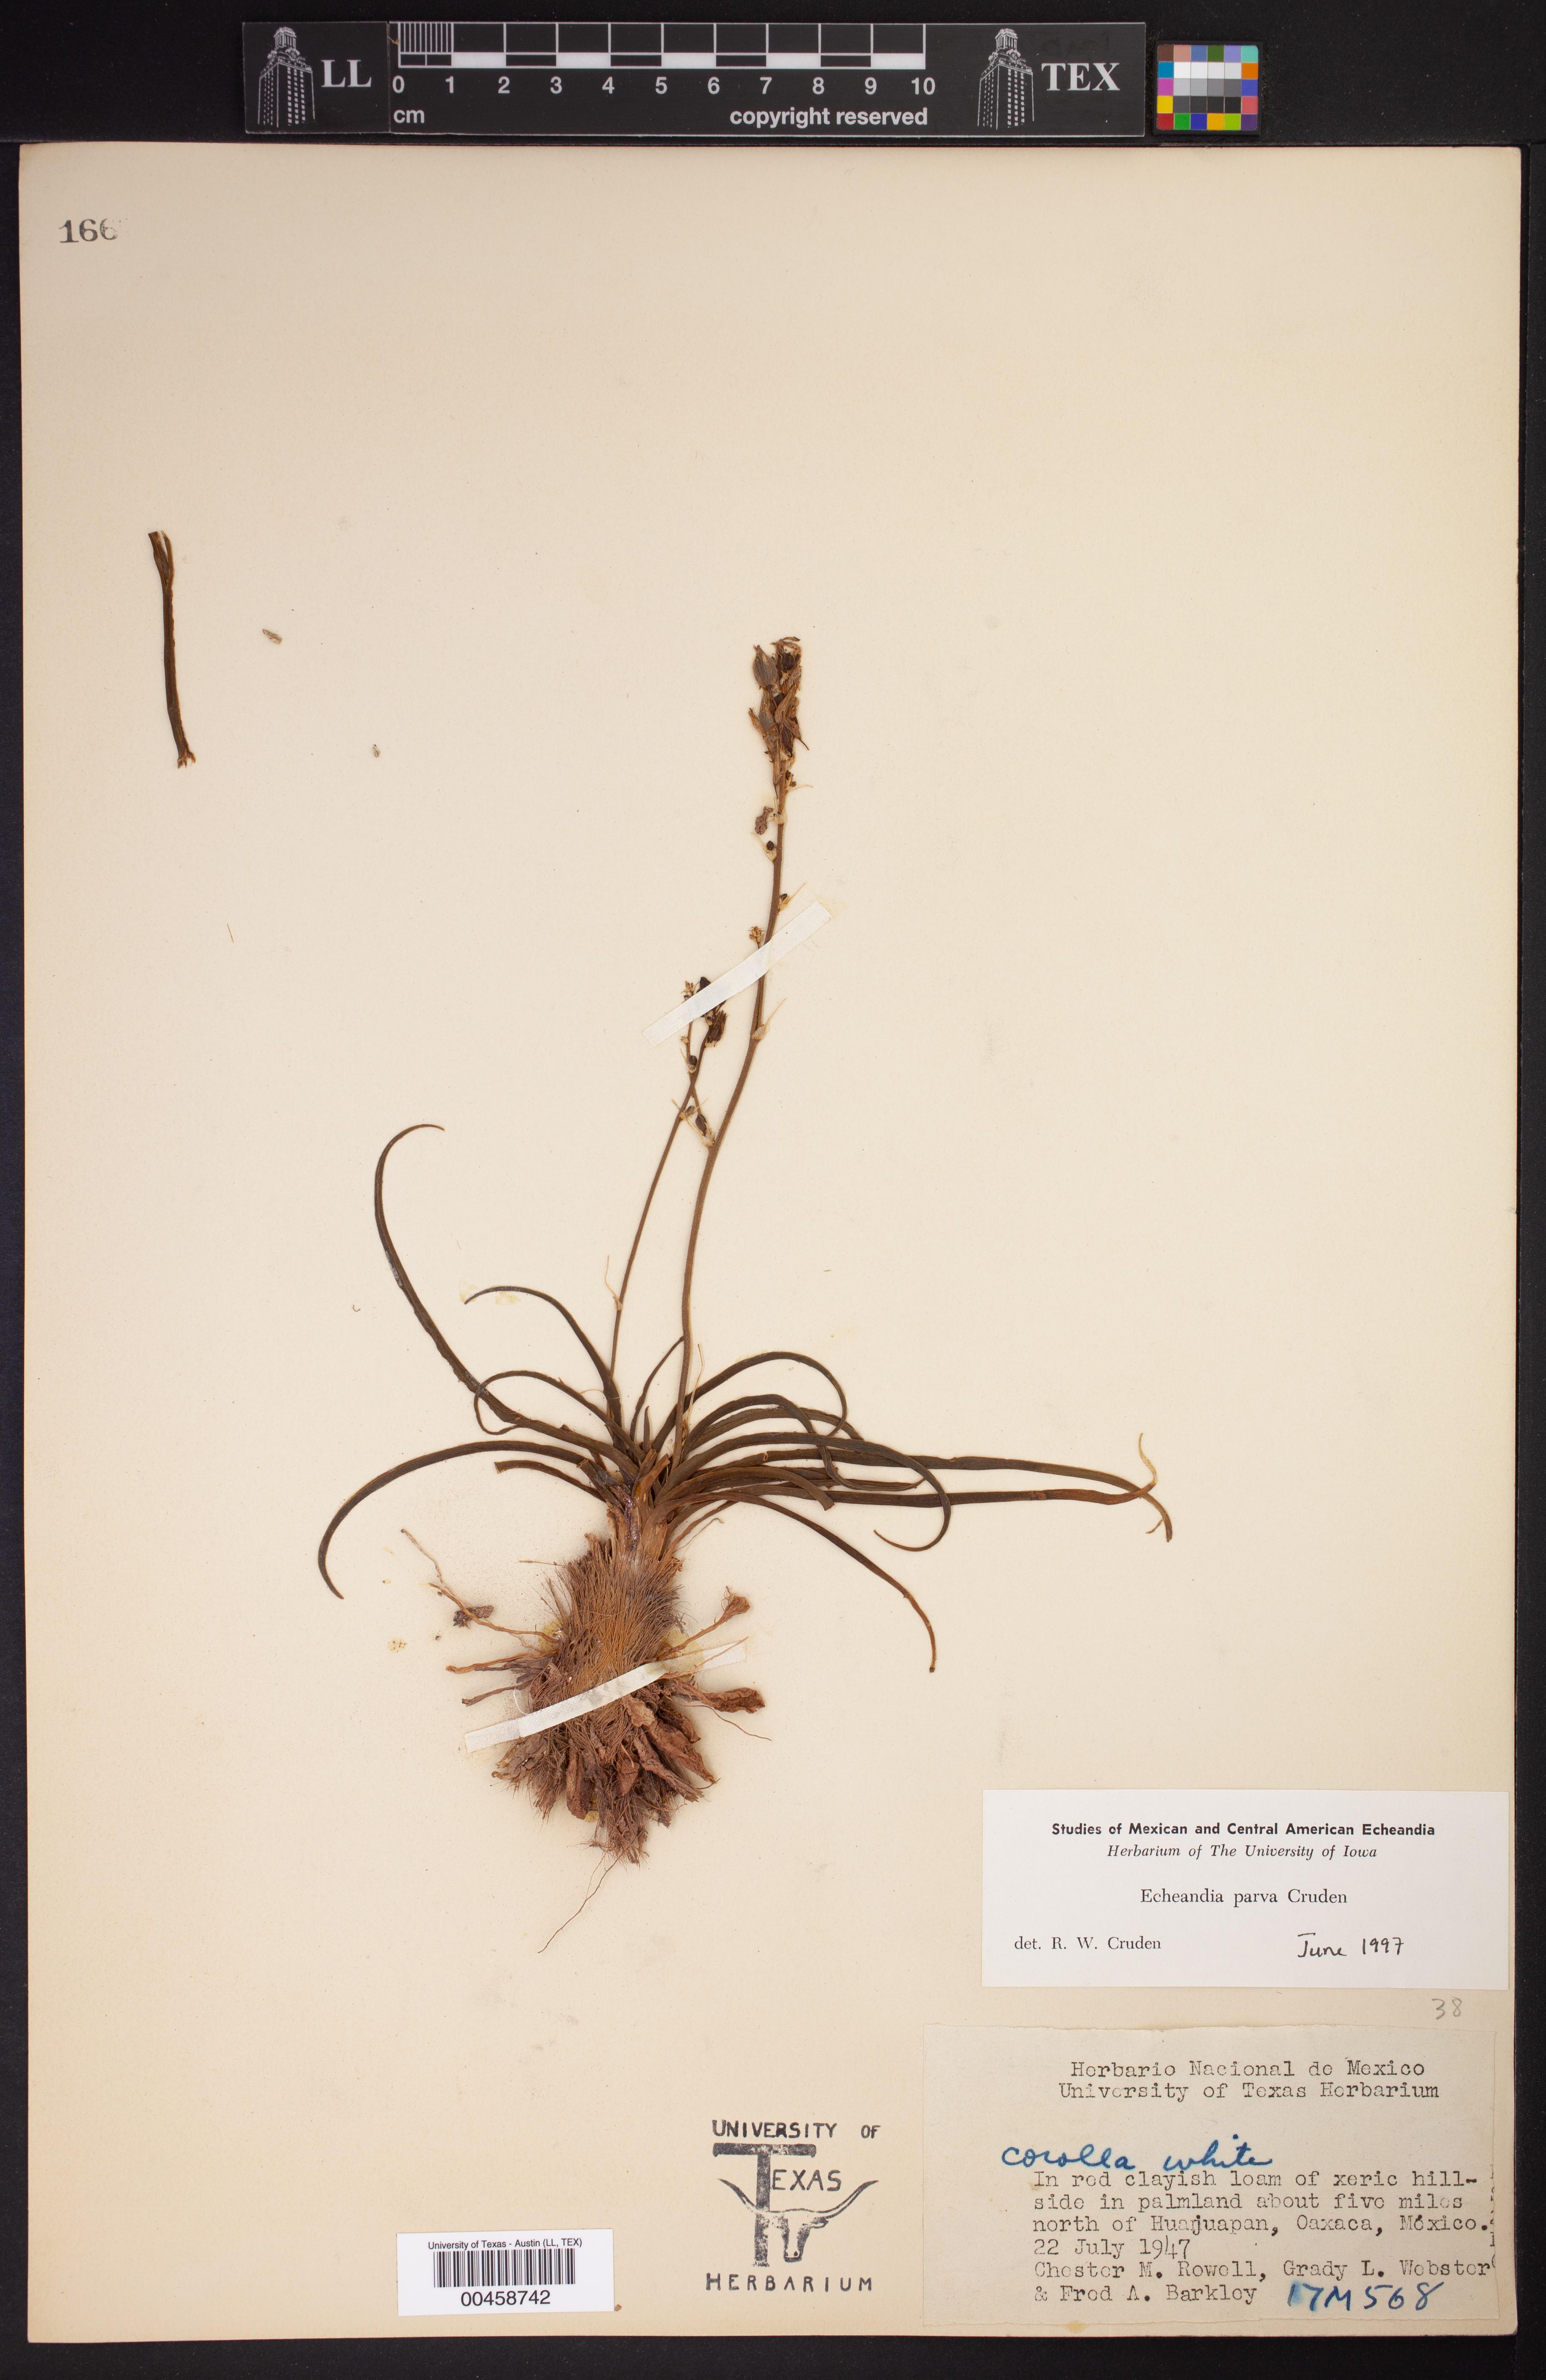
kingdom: Plantae
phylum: Tracheophyta
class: Liliopsida
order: Asparagales
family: Asparagaceae
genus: Echeandia
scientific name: Echeandia parva
